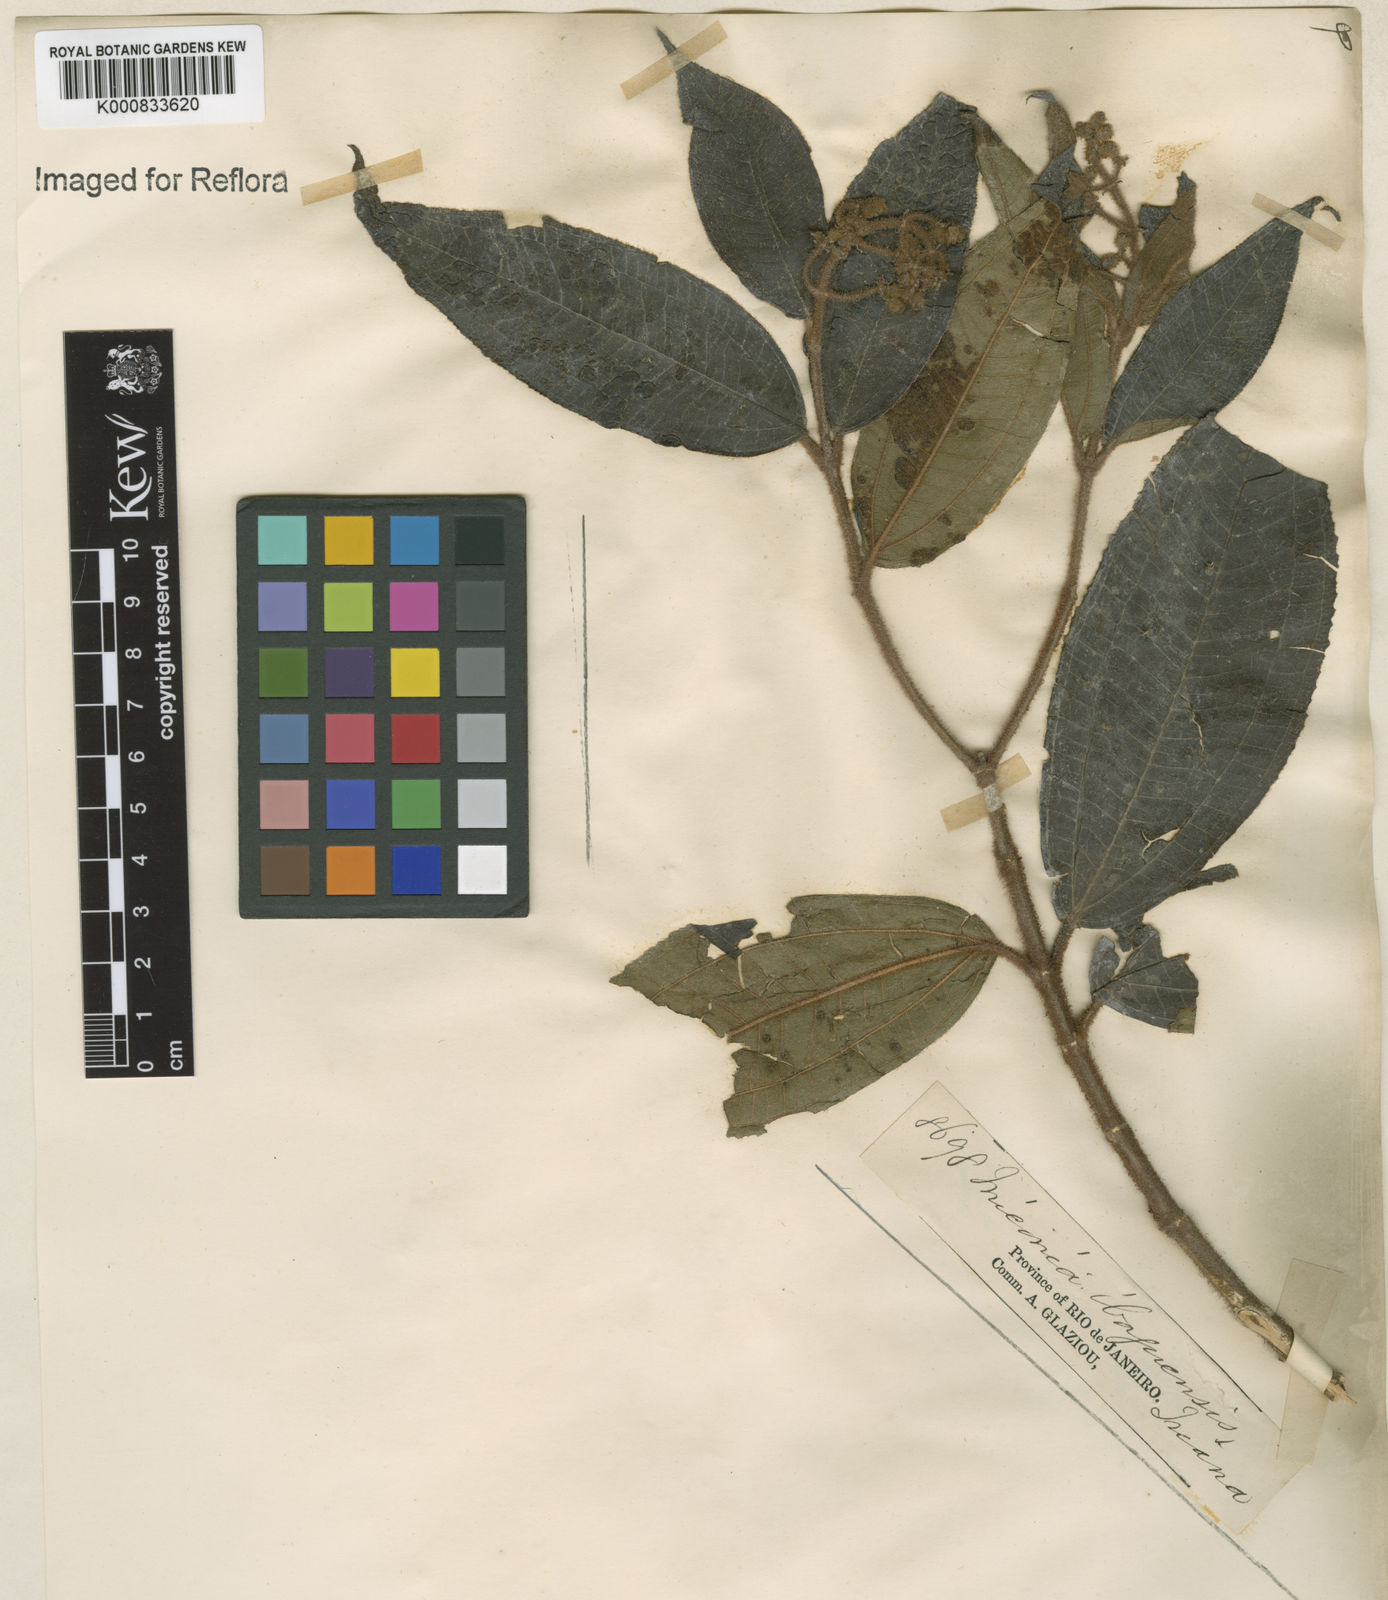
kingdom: Plantae
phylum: Tracheophyta
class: Magnoliopsida
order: Myrtales
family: Melastomataceae
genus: Miconia
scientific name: Miconia ibaguensis
